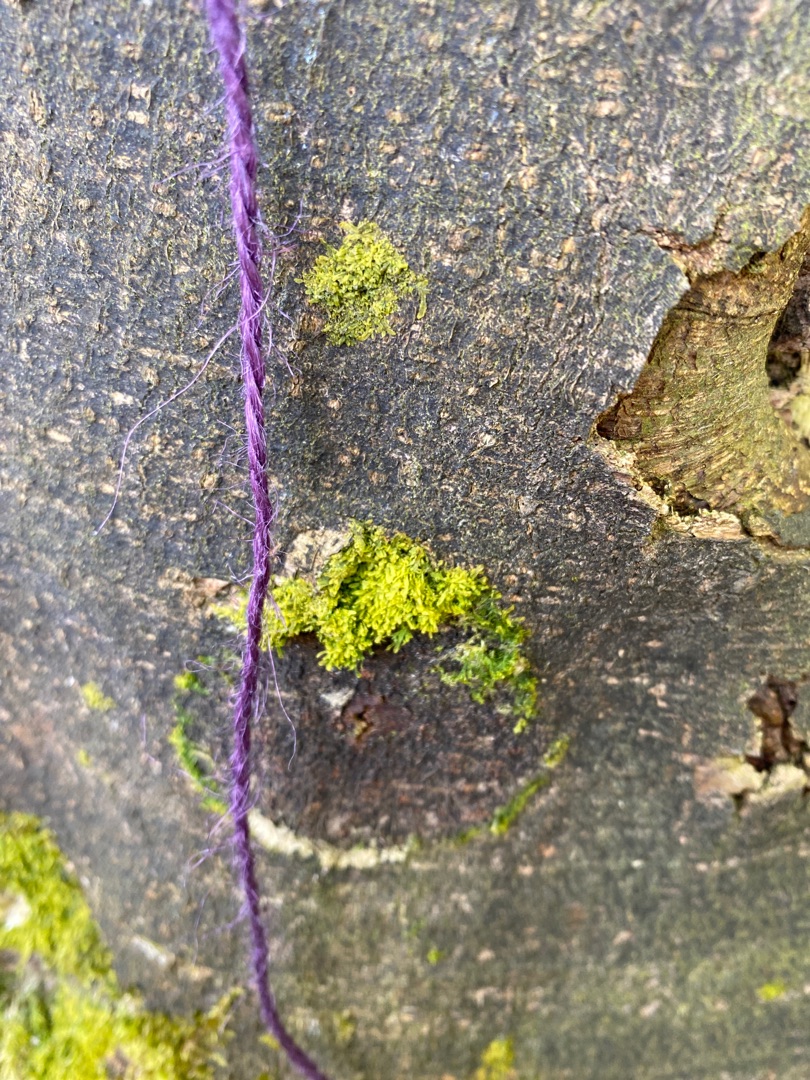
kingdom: Plantae
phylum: Marchantiophyta
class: Jungermanniopsida
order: Metzgeriales
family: Metzgeriaceae
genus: Metzgeria
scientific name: Metzgeria furcata
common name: Almindelig gaffelløv
